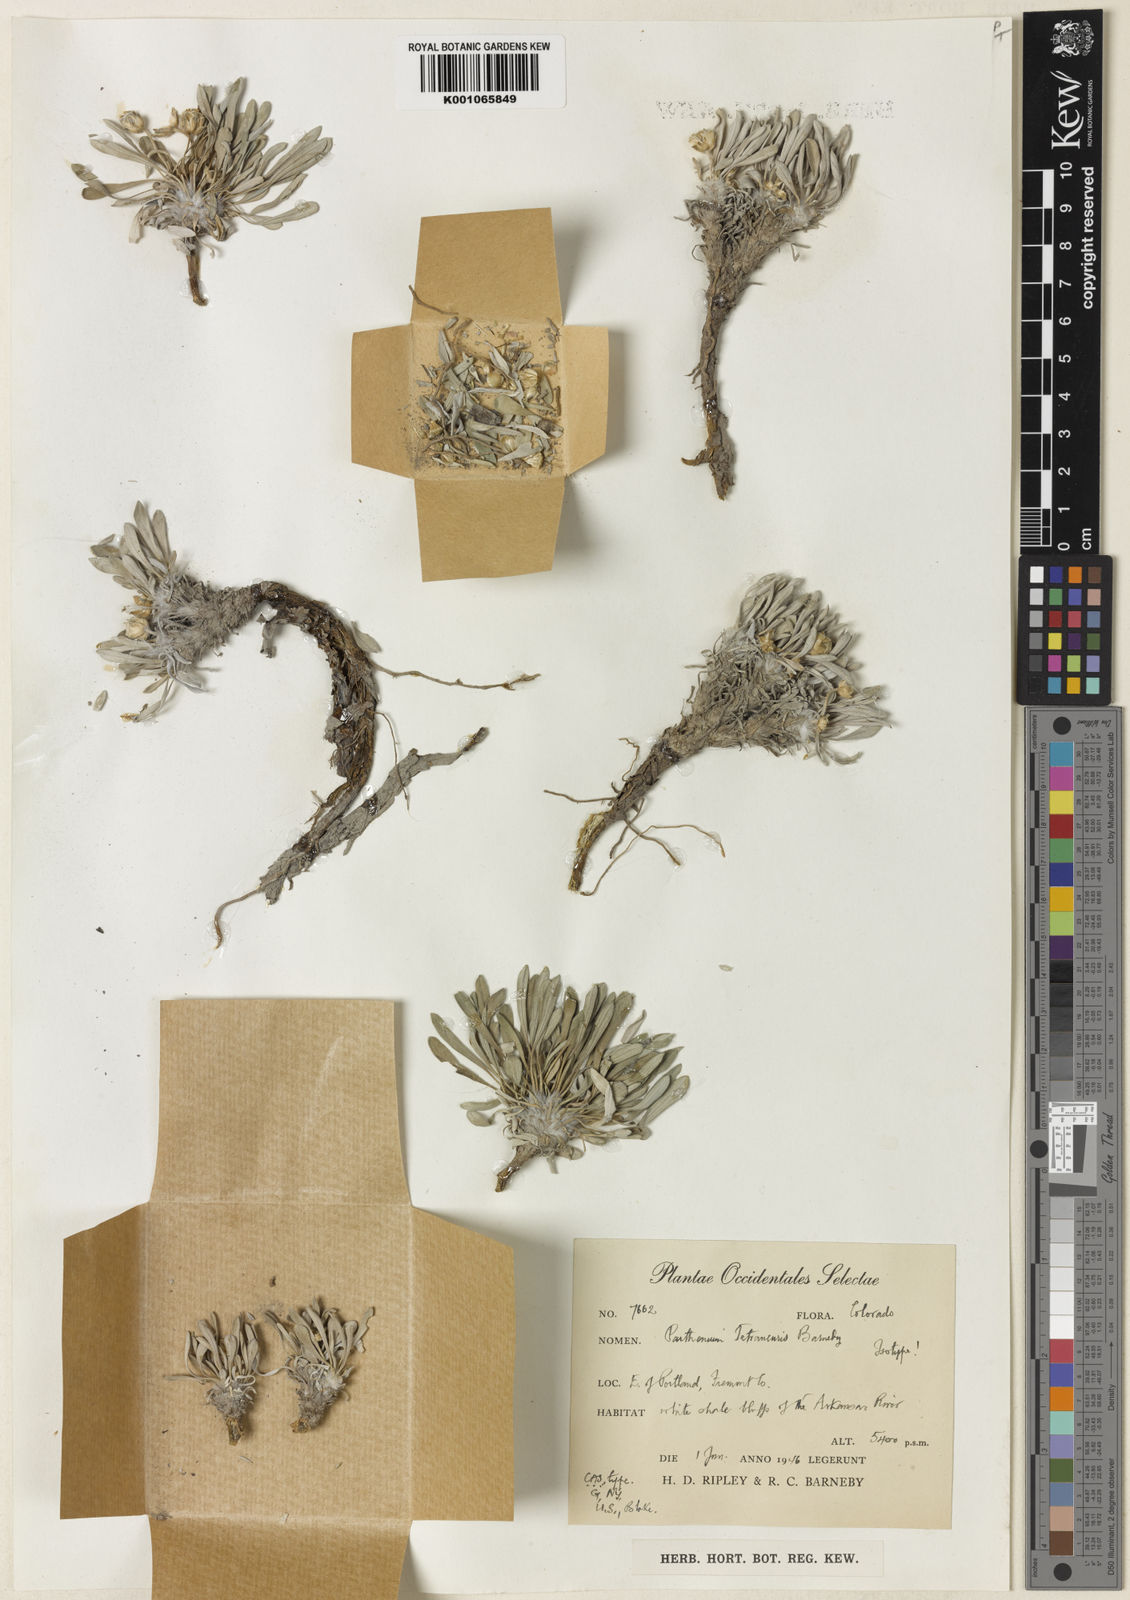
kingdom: Plantae
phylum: Tracheophyta
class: Magnoliopsida
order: Asterales
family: Asteraceae
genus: Parthenium
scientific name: Parthenium tetraneuris
